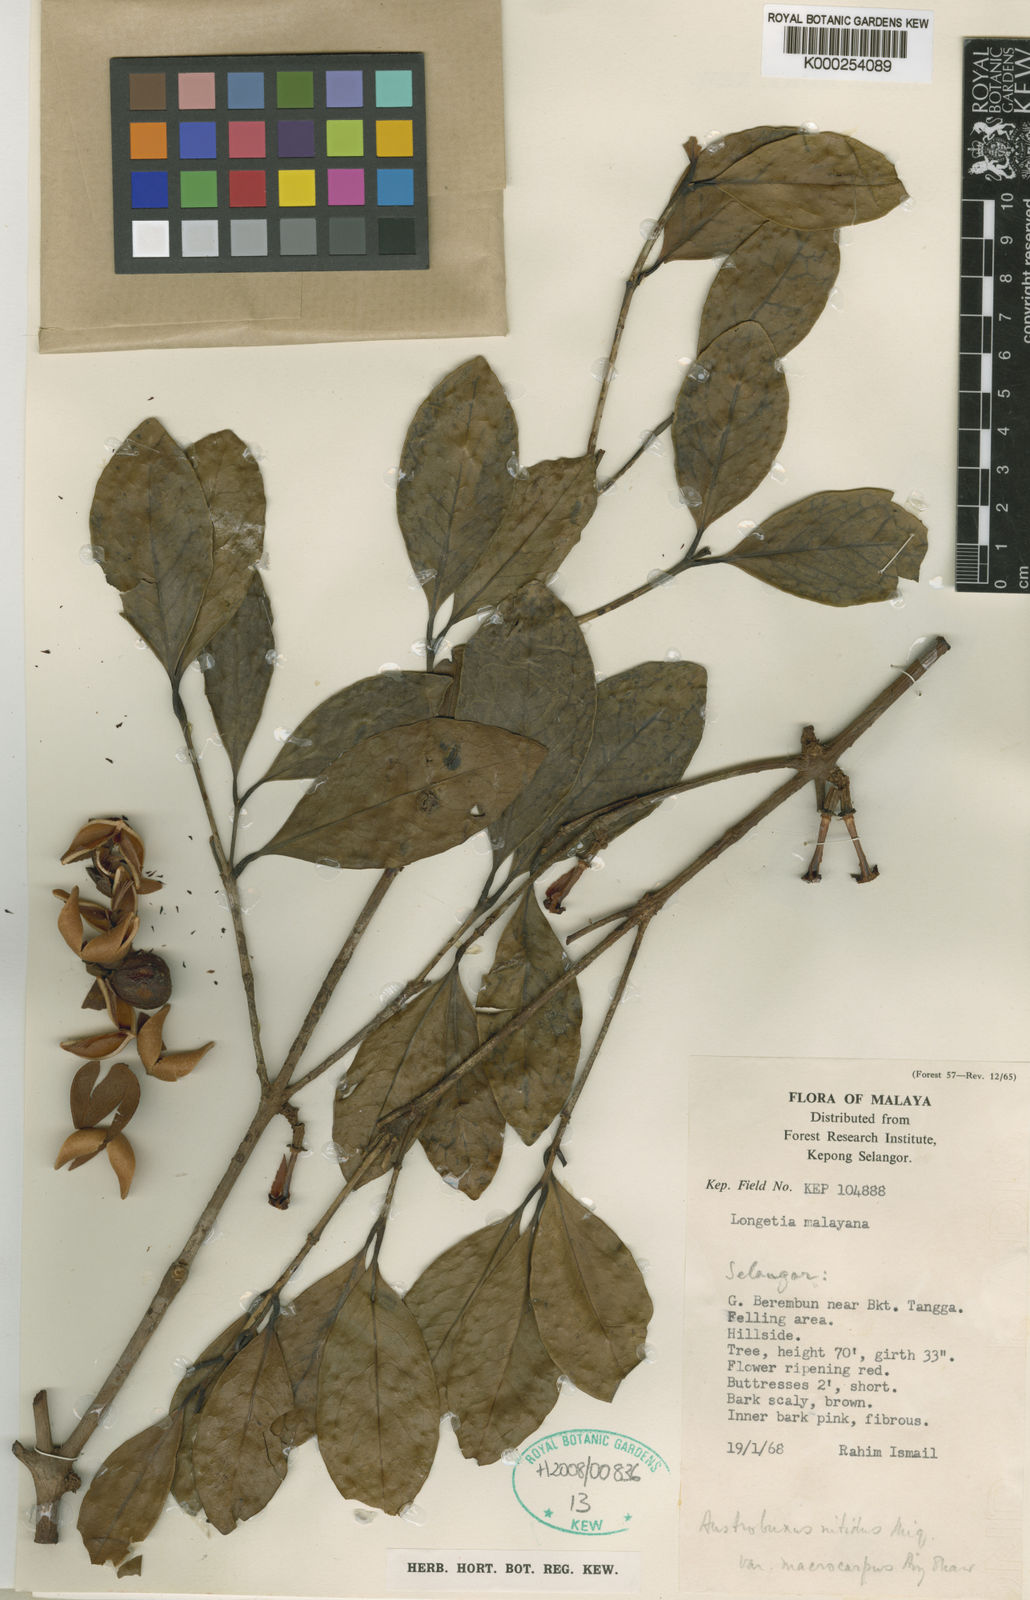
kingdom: Plantae
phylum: Tracheophyta
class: Magnoliopsida
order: Malpighiales
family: Picrodendraceae
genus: Austrobuxus
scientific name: Austrobuxus nitidus
